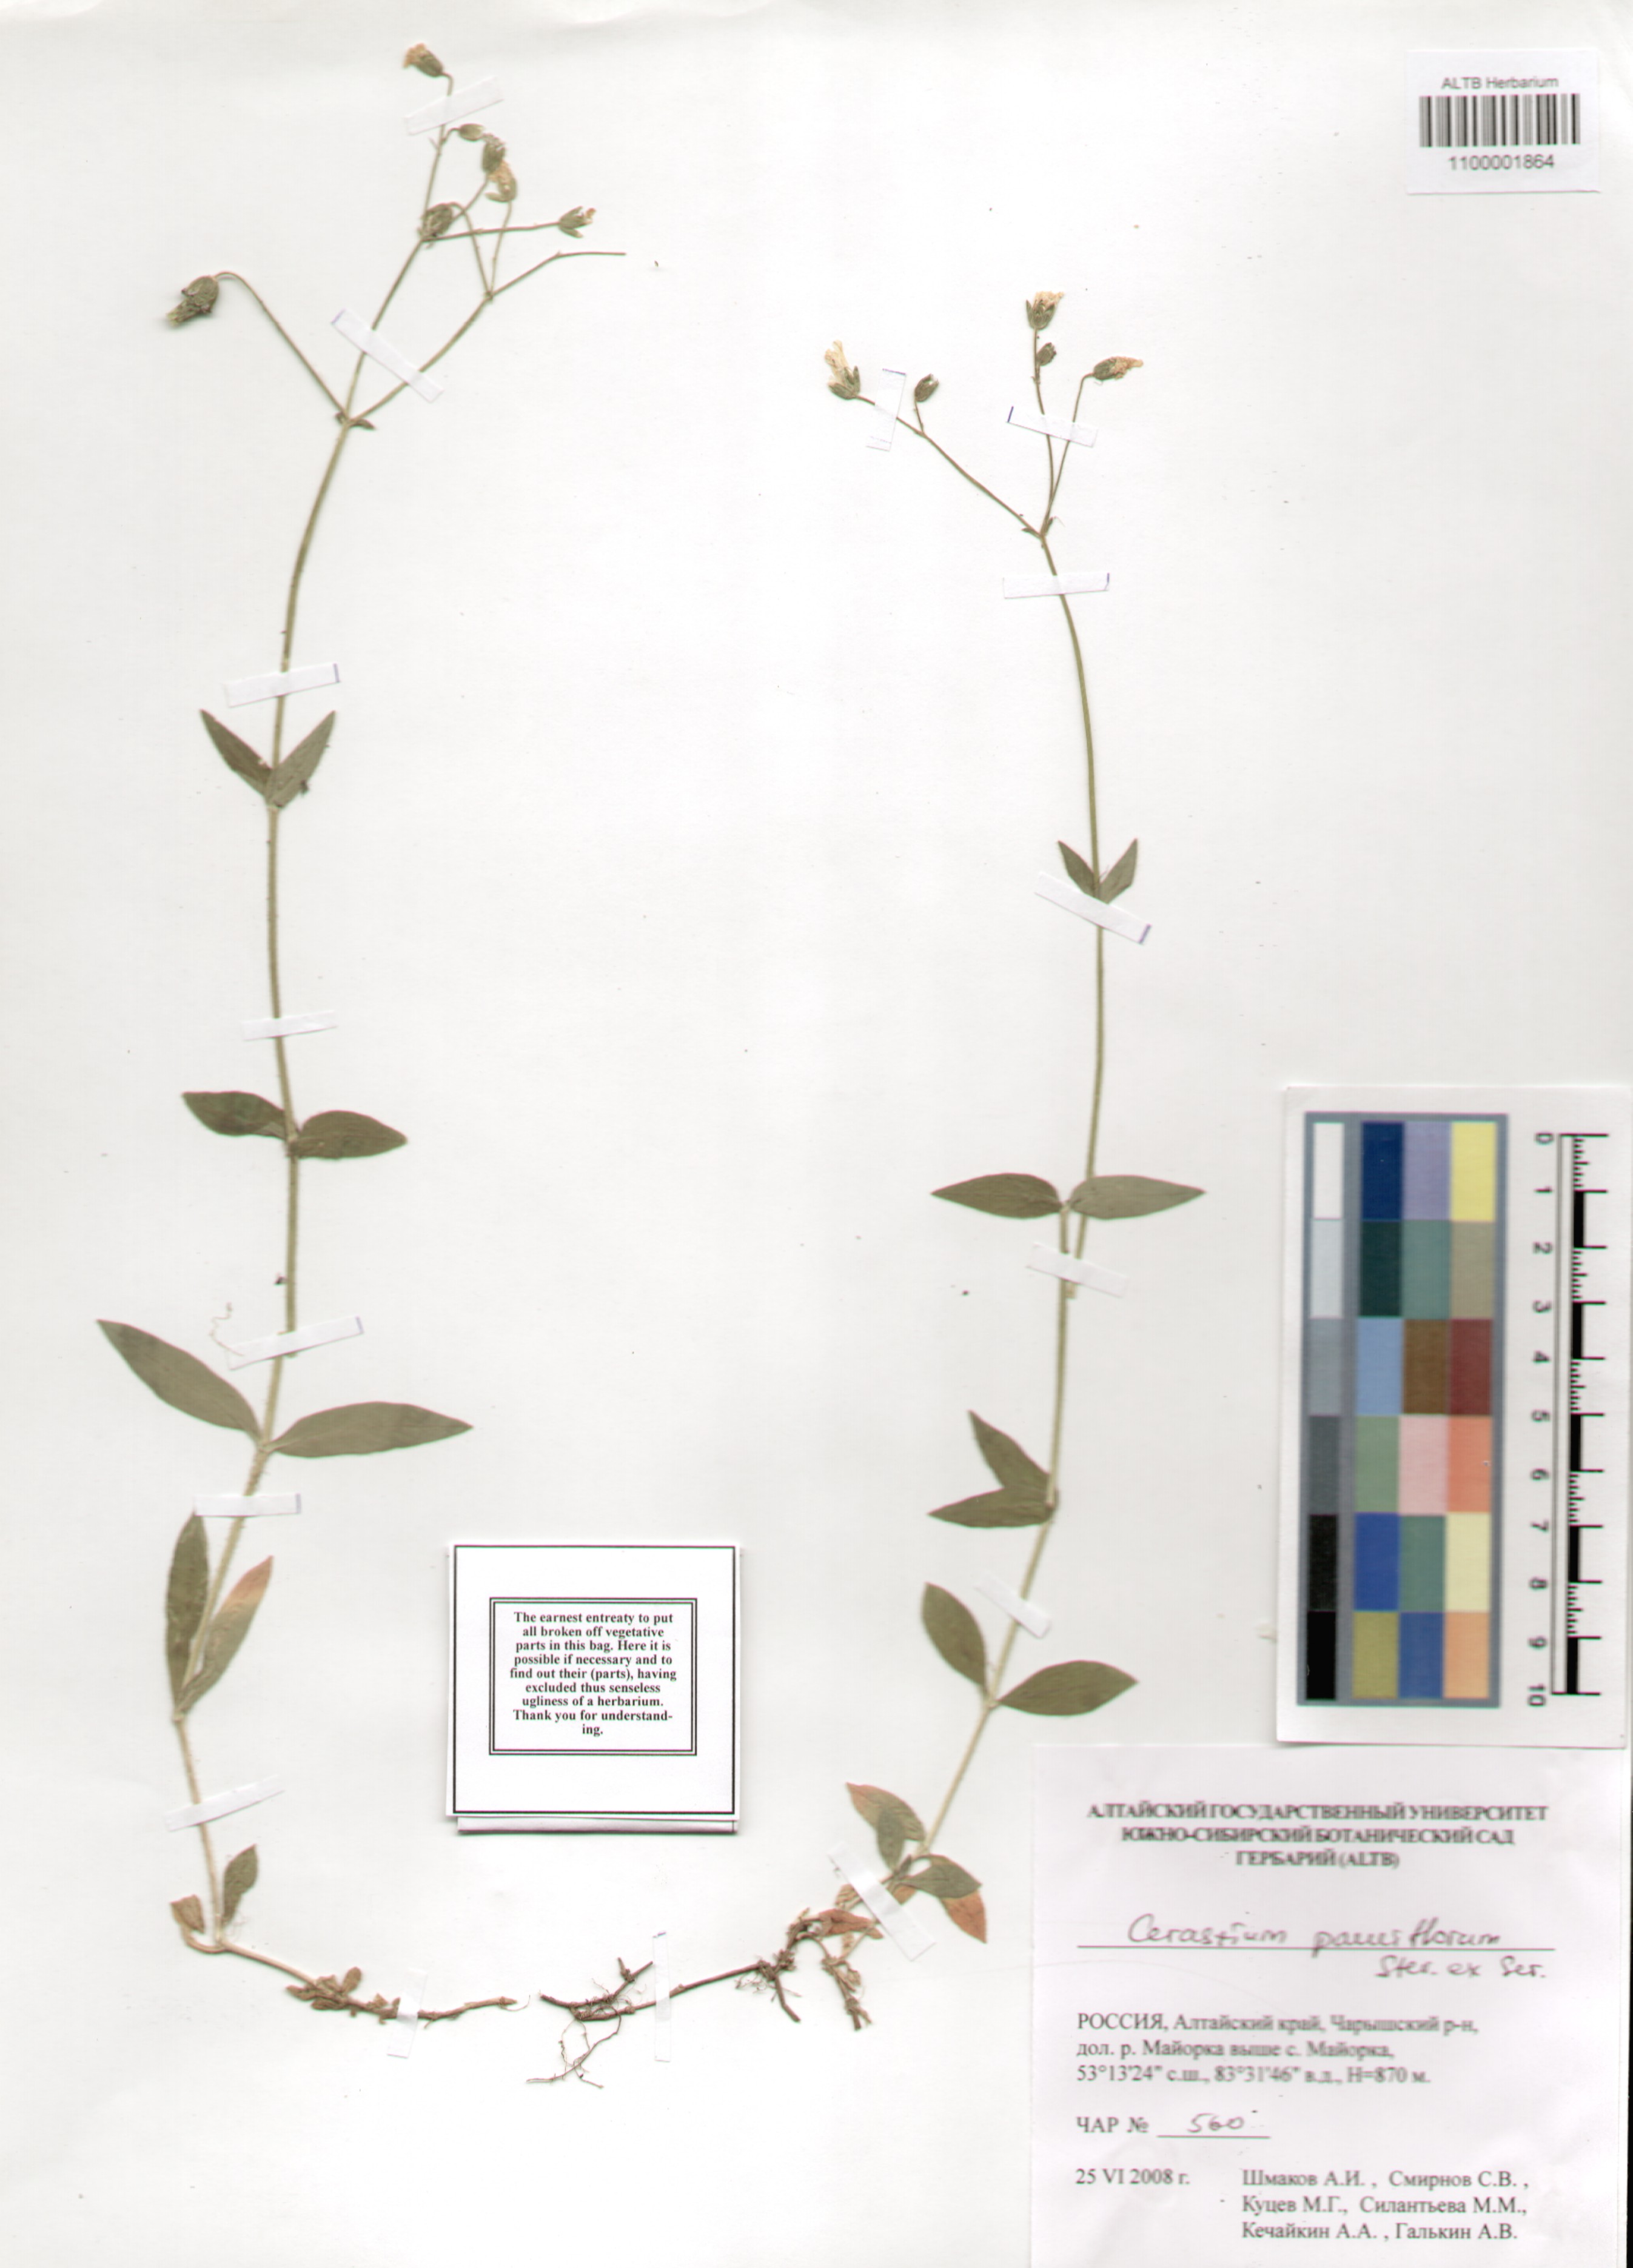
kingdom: Plantae
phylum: Tracheophyta
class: Magnoliopsida
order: Caryophyllales
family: Caryophyllaceae
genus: Cerastium
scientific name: Cerastium pauciflorum
